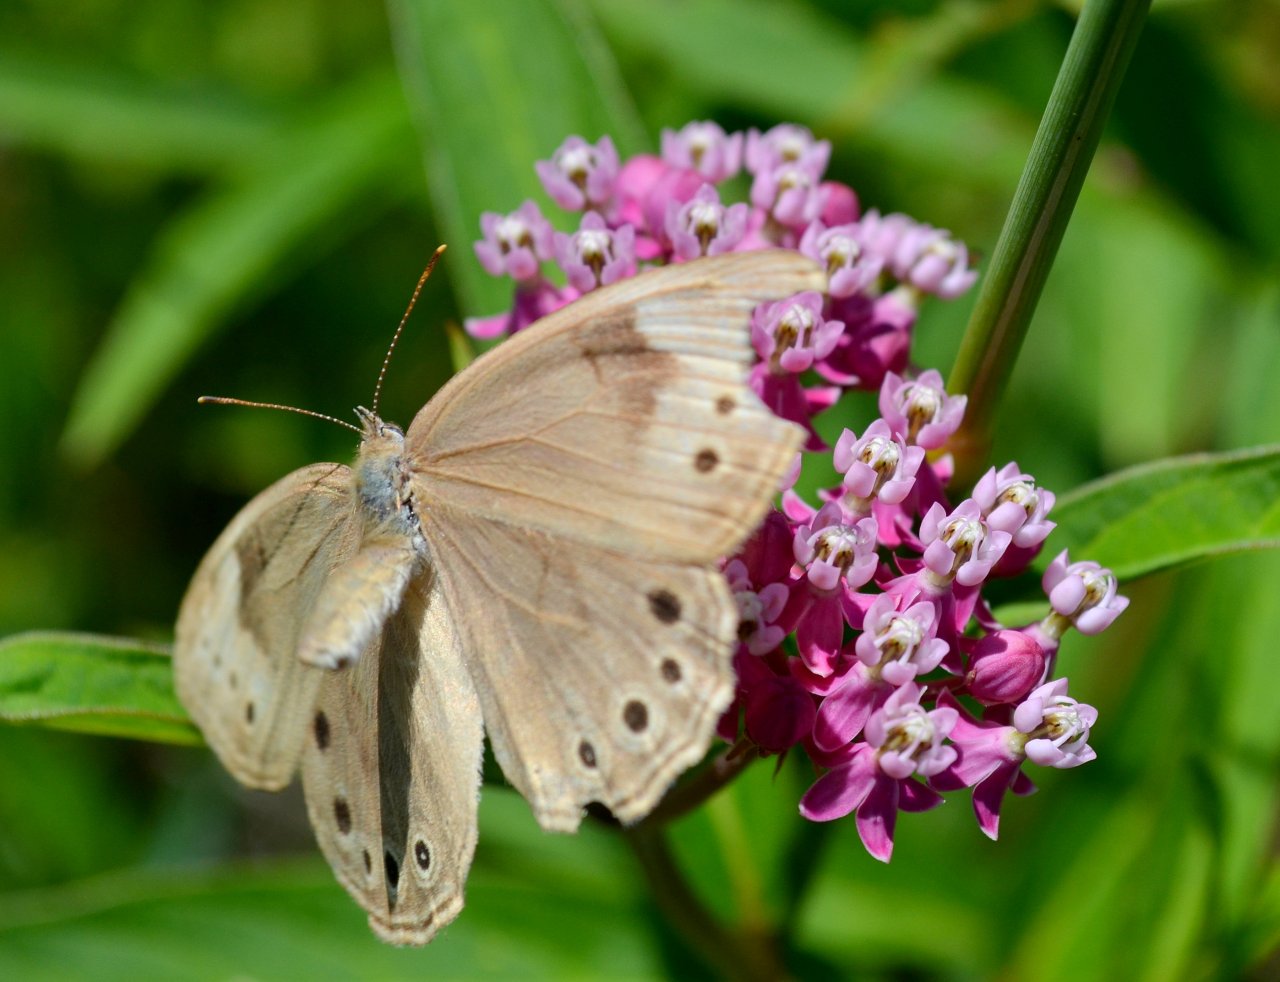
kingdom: Animalia
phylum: Arthropoda
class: Insecta
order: Lepidoptera
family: Nymphalidae
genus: Lethe
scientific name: Lethe eurydice
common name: Eyed Brown
